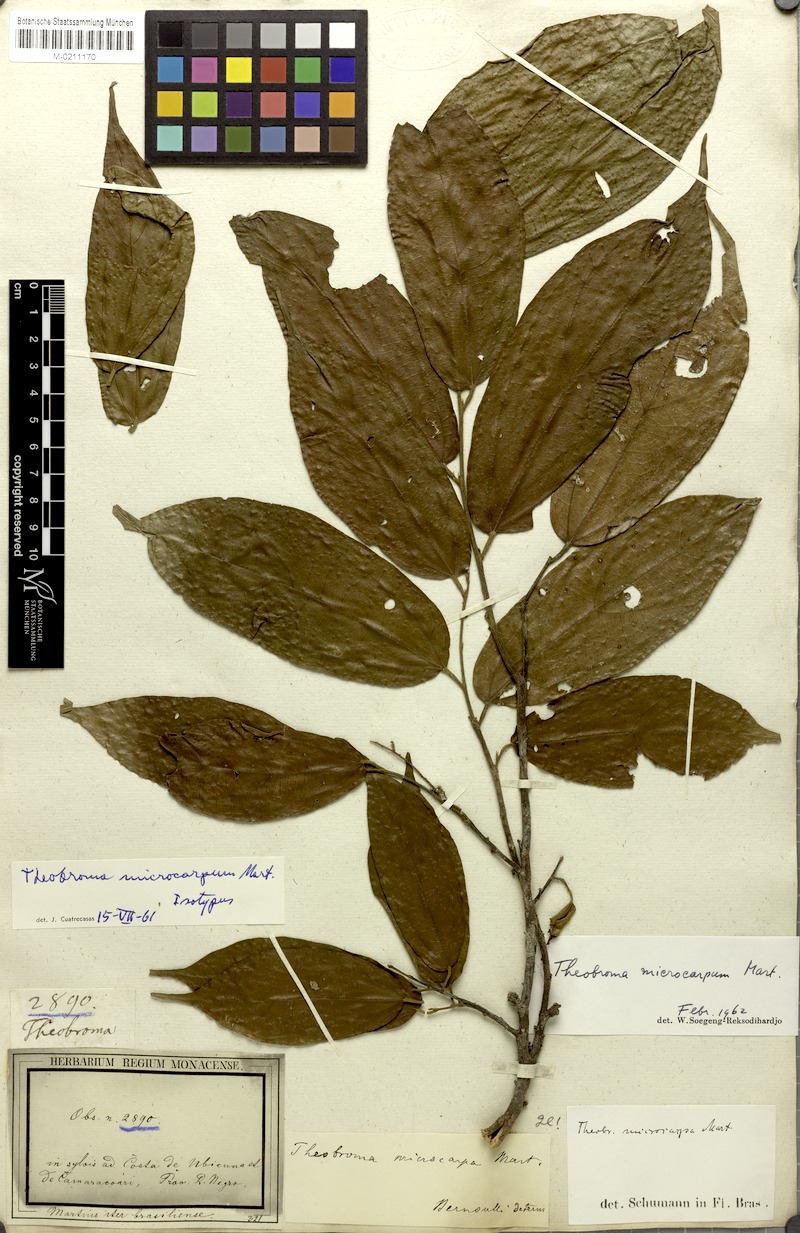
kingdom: Plantae
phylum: Tracheophyta
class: Magnoliopsida
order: Malvales
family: Malvaceae
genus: Theobroma
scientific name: Theobroma microcarpum
